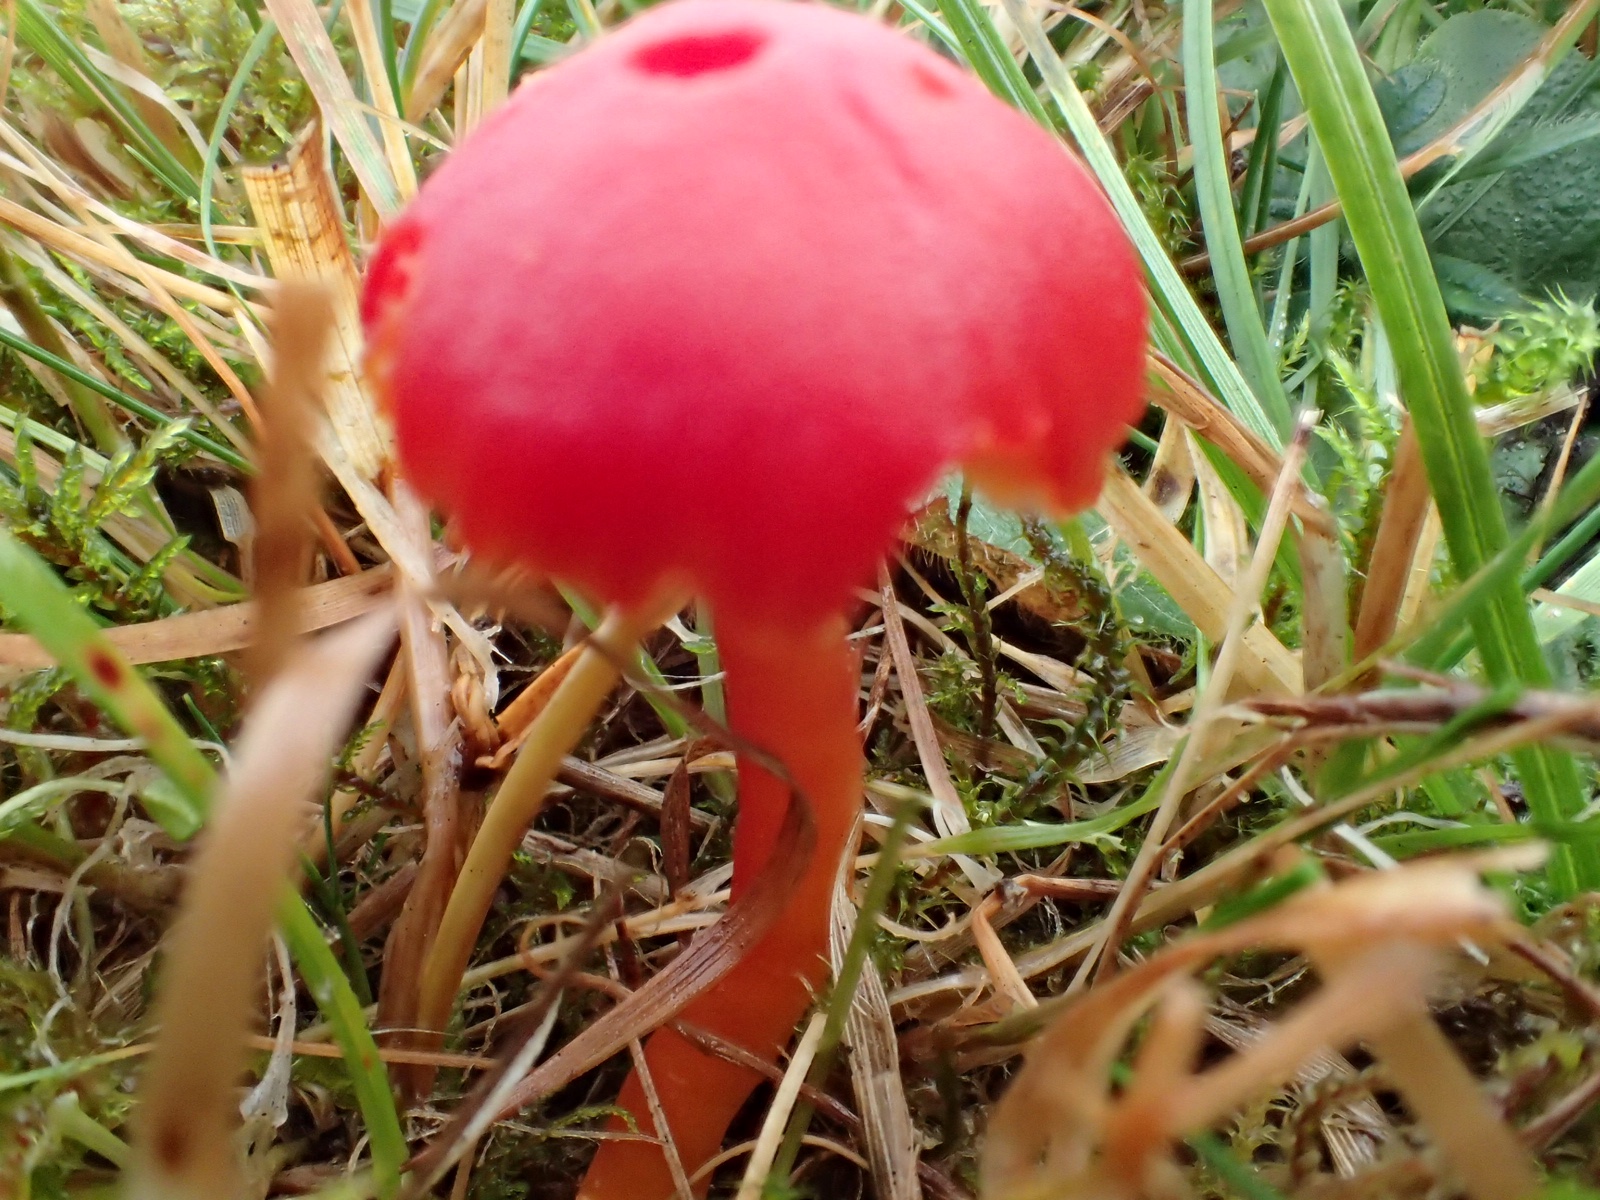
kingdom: Fungi
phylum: Basidiomycota
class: Agaricomycetes
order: Agaricales
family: Hygrophoraceae
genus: Hygrocybe
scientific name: Hygrocybe coccinea
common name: cinnober-vokshat
